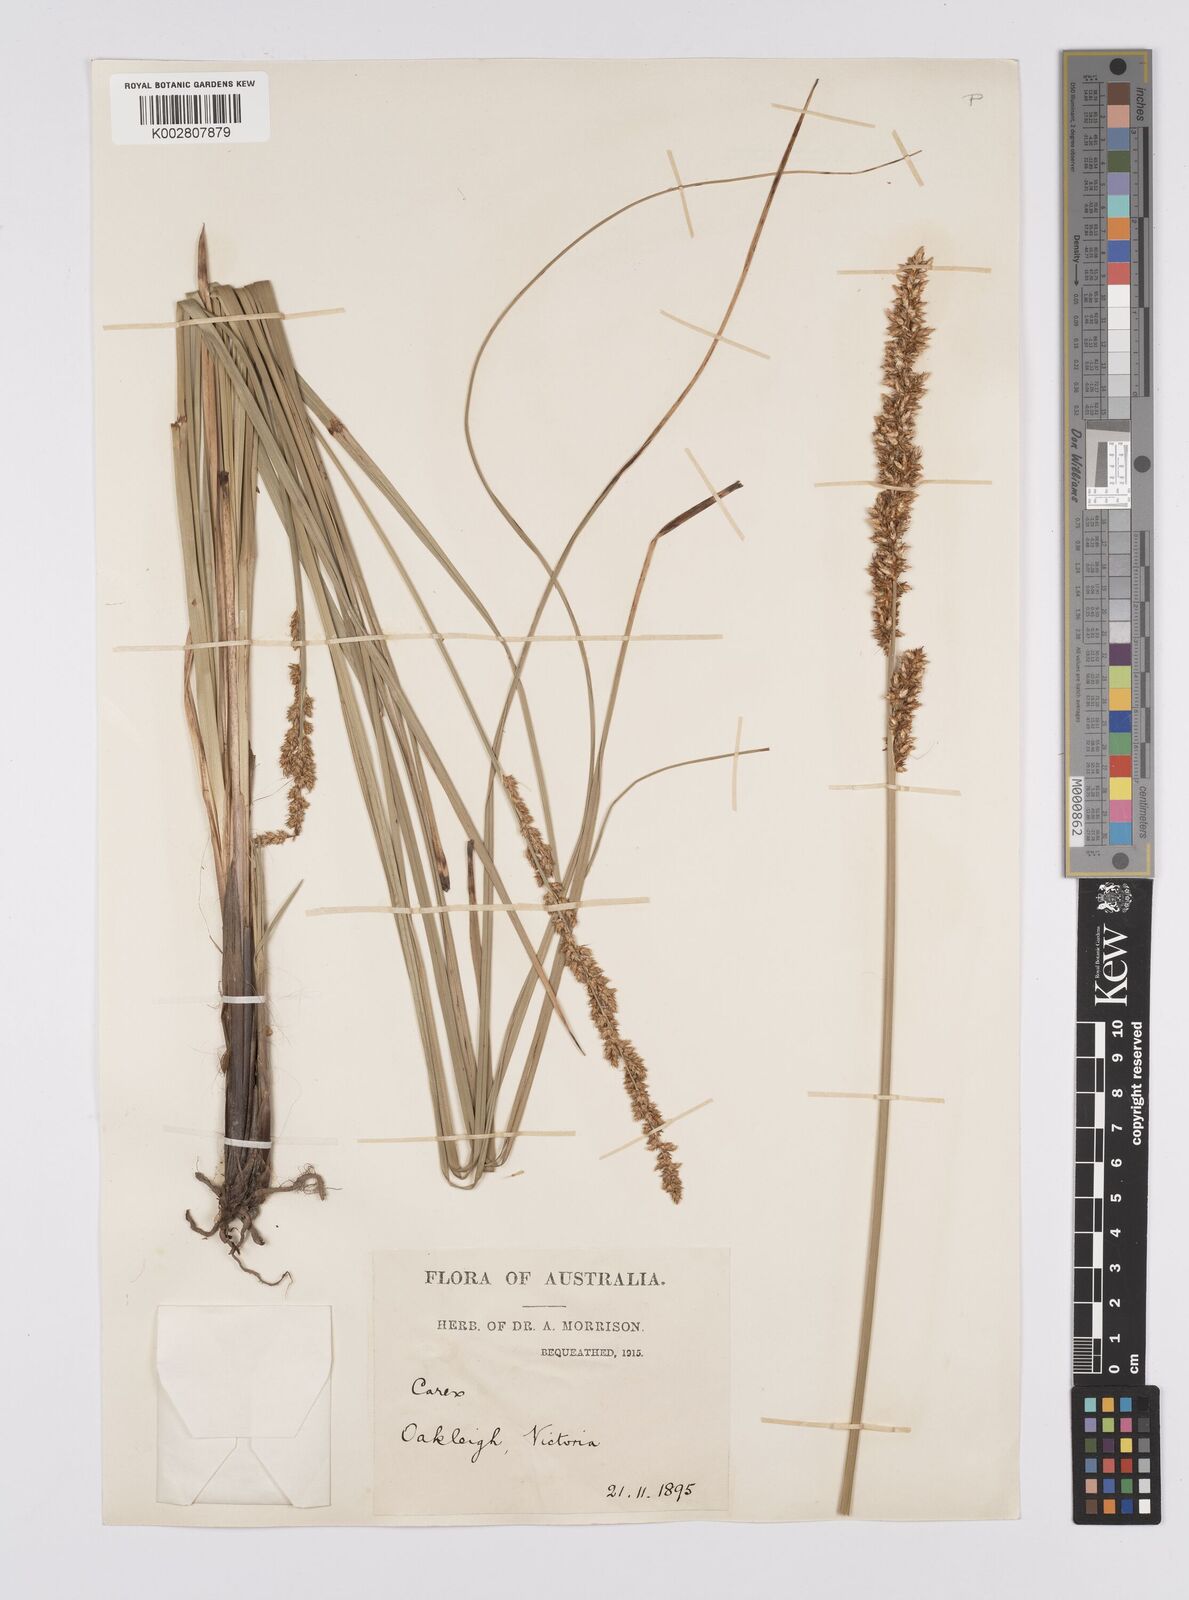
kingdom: Plantae
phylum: Tracheophyta
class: Liliopsida
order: Poales
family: Cyperaceae
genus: Carex
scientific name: Carex appressa
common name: Tussock sedge
